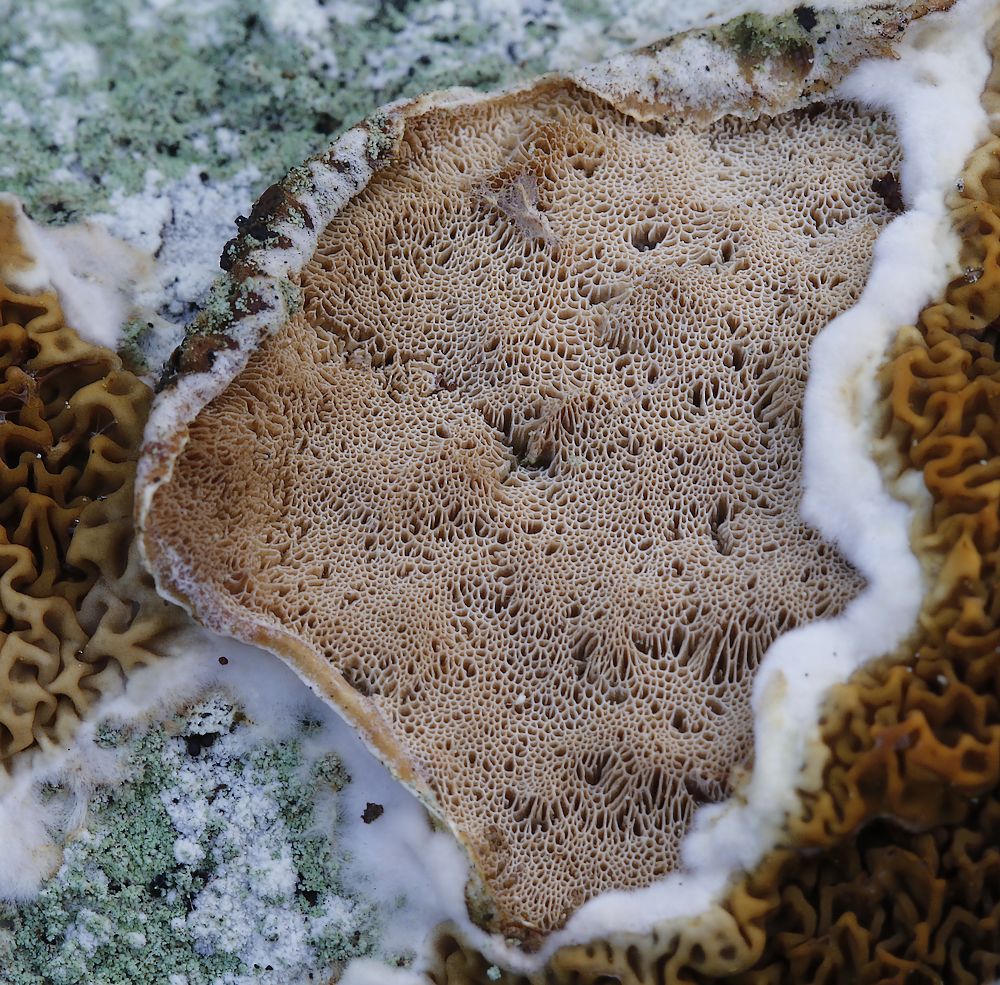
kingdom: Fungi
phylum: Basidiomycota
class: Agaricomycetes
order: Polyporales
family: Incrustoporiaceae
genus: Skeletocutis
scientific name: Skeletocutis carneogrisea
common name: rødgrå krystalporesvamp
